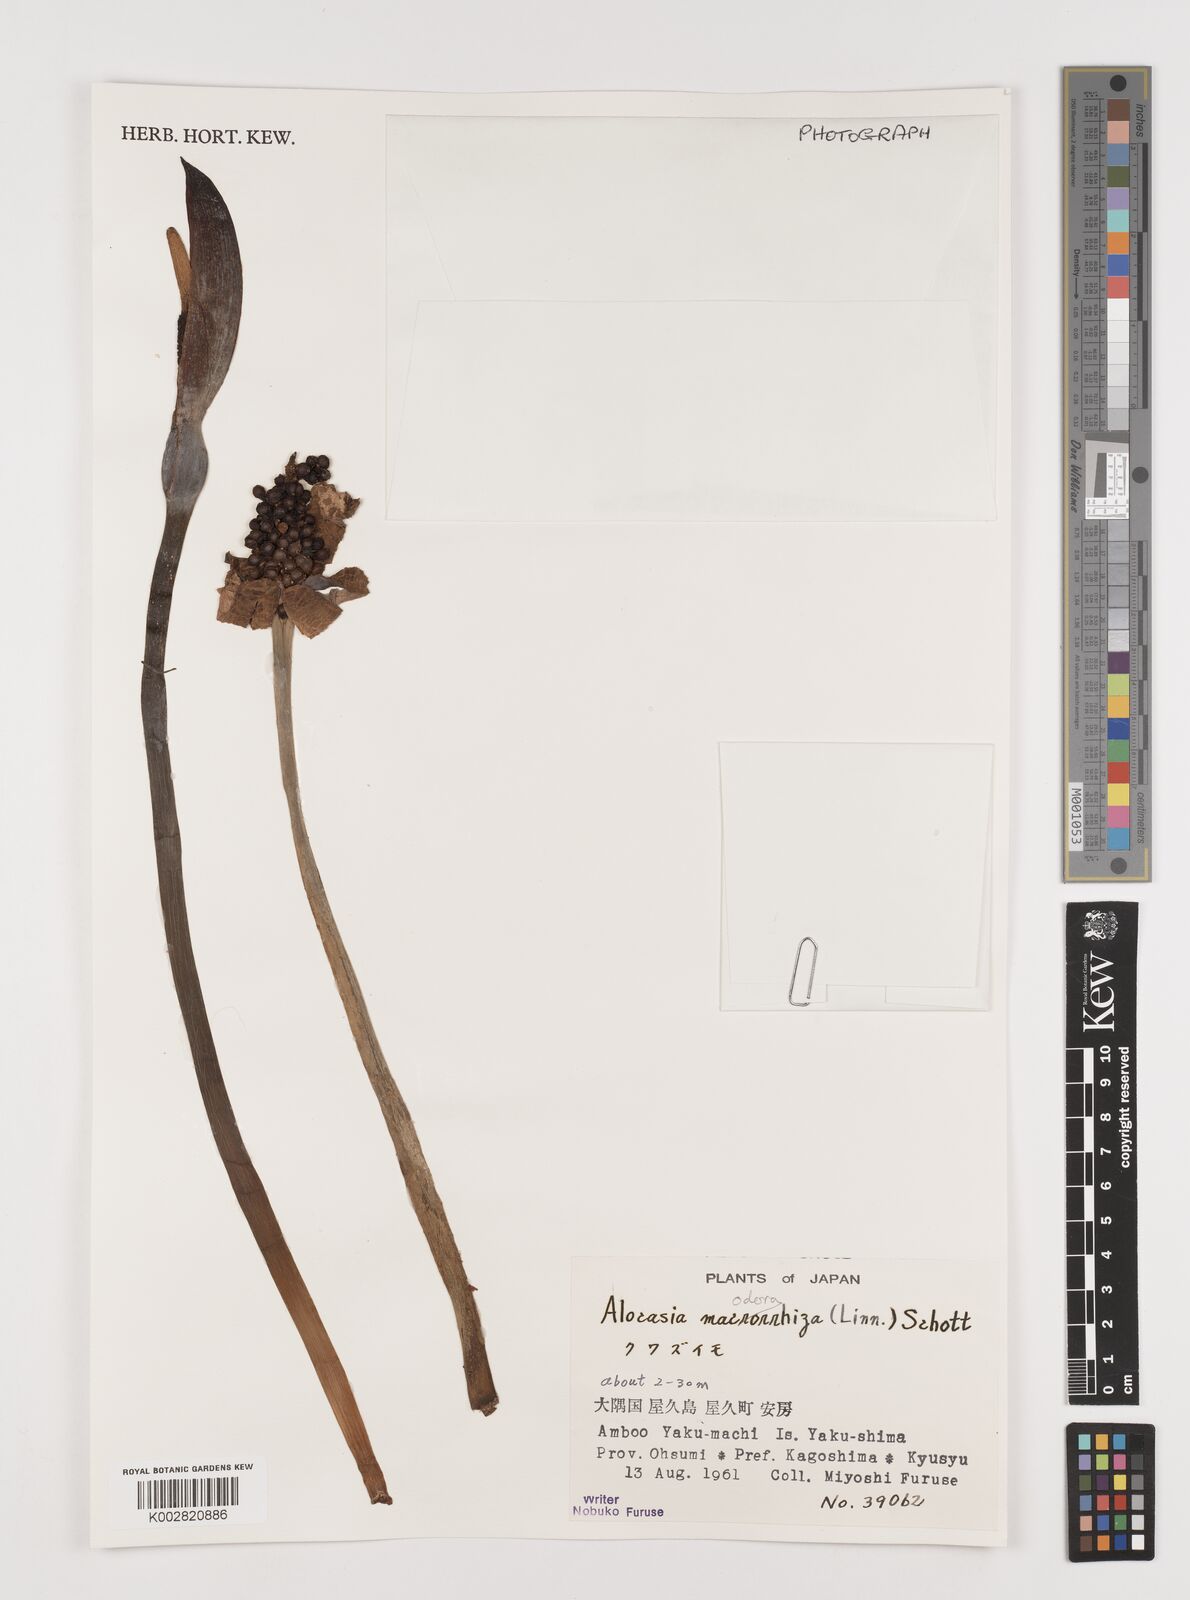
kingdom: Plantae
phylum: Tracheophyta
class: Liliopsida
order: Alismatales
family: Araceae
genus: Alocasia
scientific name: Alocasia
